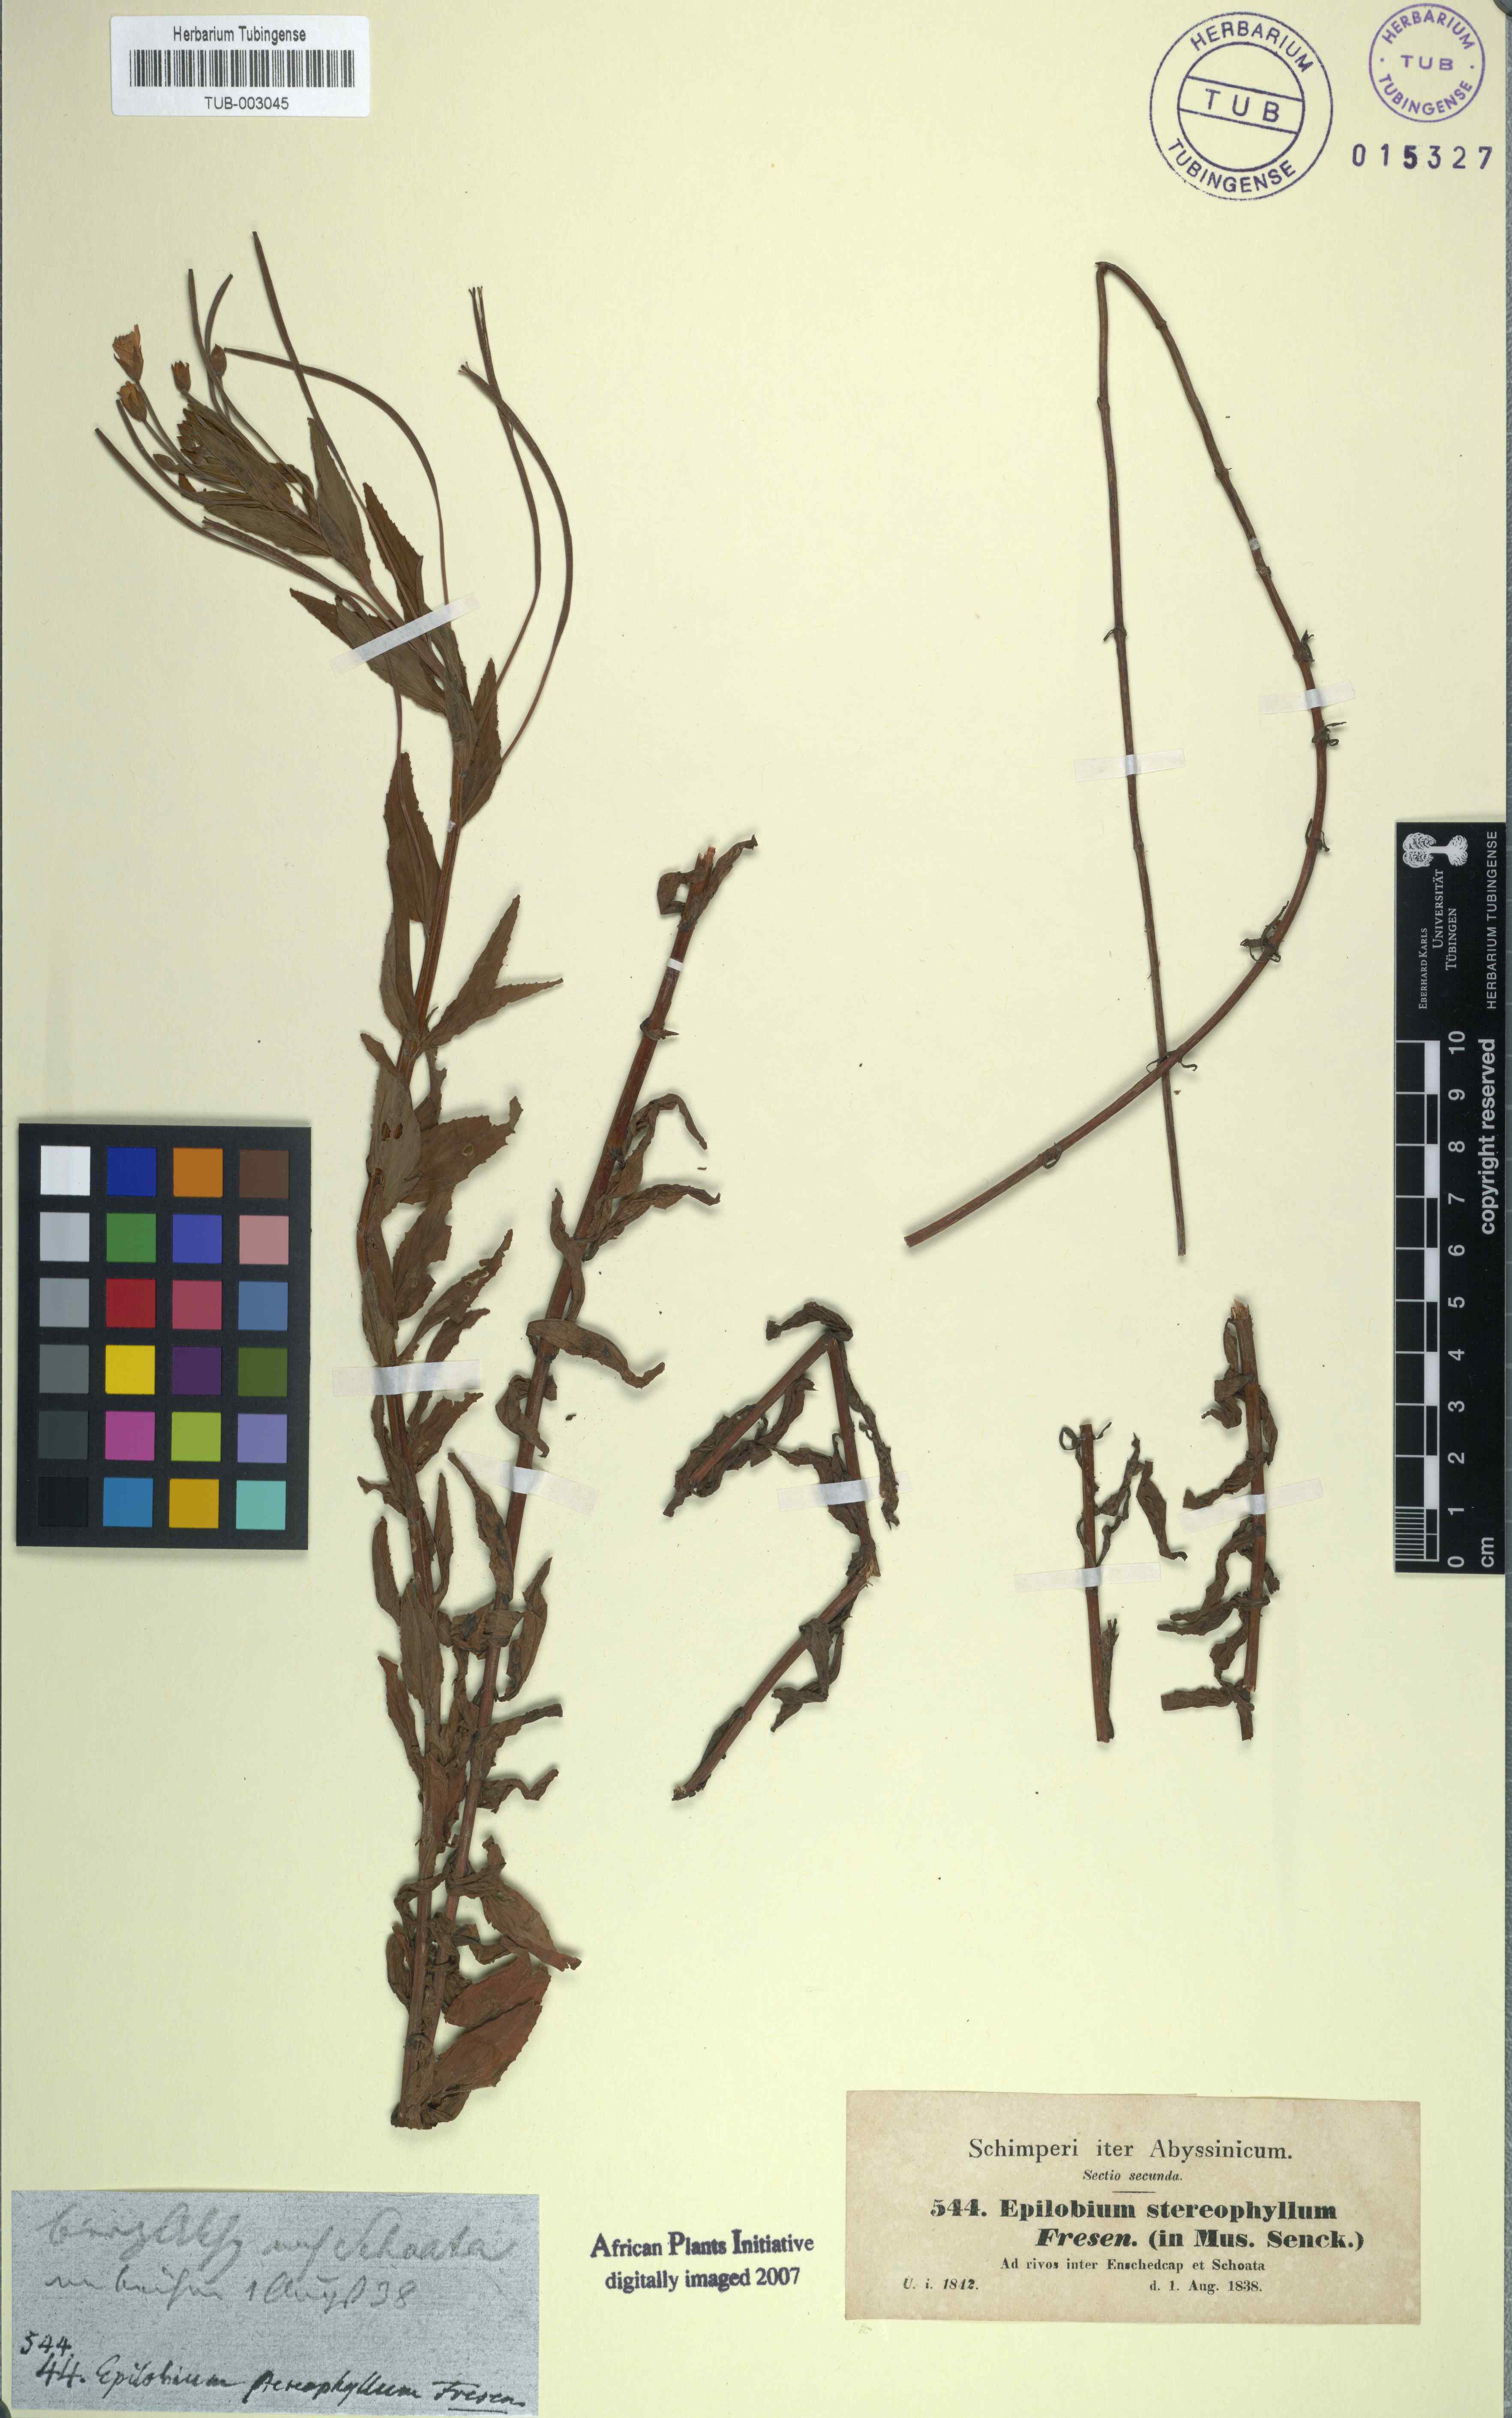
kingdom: Plantae
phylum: Tracheophyta
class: Magnoliopsida
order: Myrtales
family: Onagraceae
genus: Epilobium
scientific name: Epilobium stereophyllum
